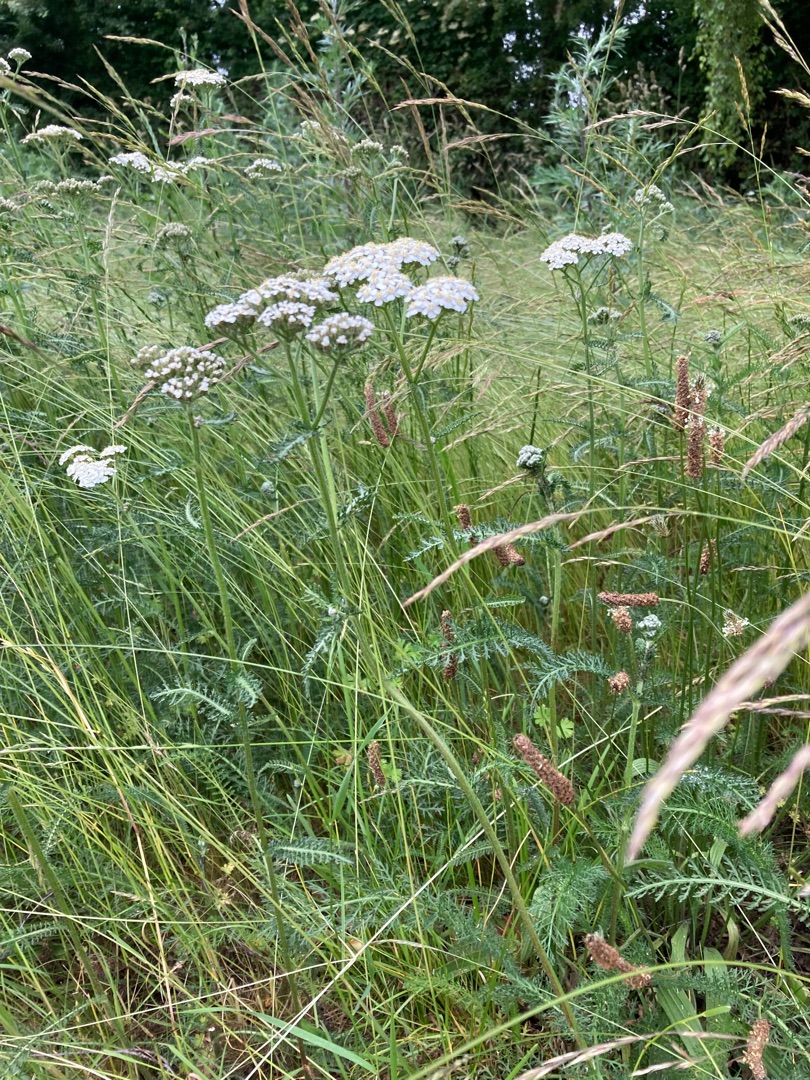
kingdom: Plantae
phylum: Tracheophyta
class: Magnoliopsida
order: Asterales
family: Asteraceae
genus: Achillea
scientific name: Achillea millefolium
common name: Almindelig røllike
